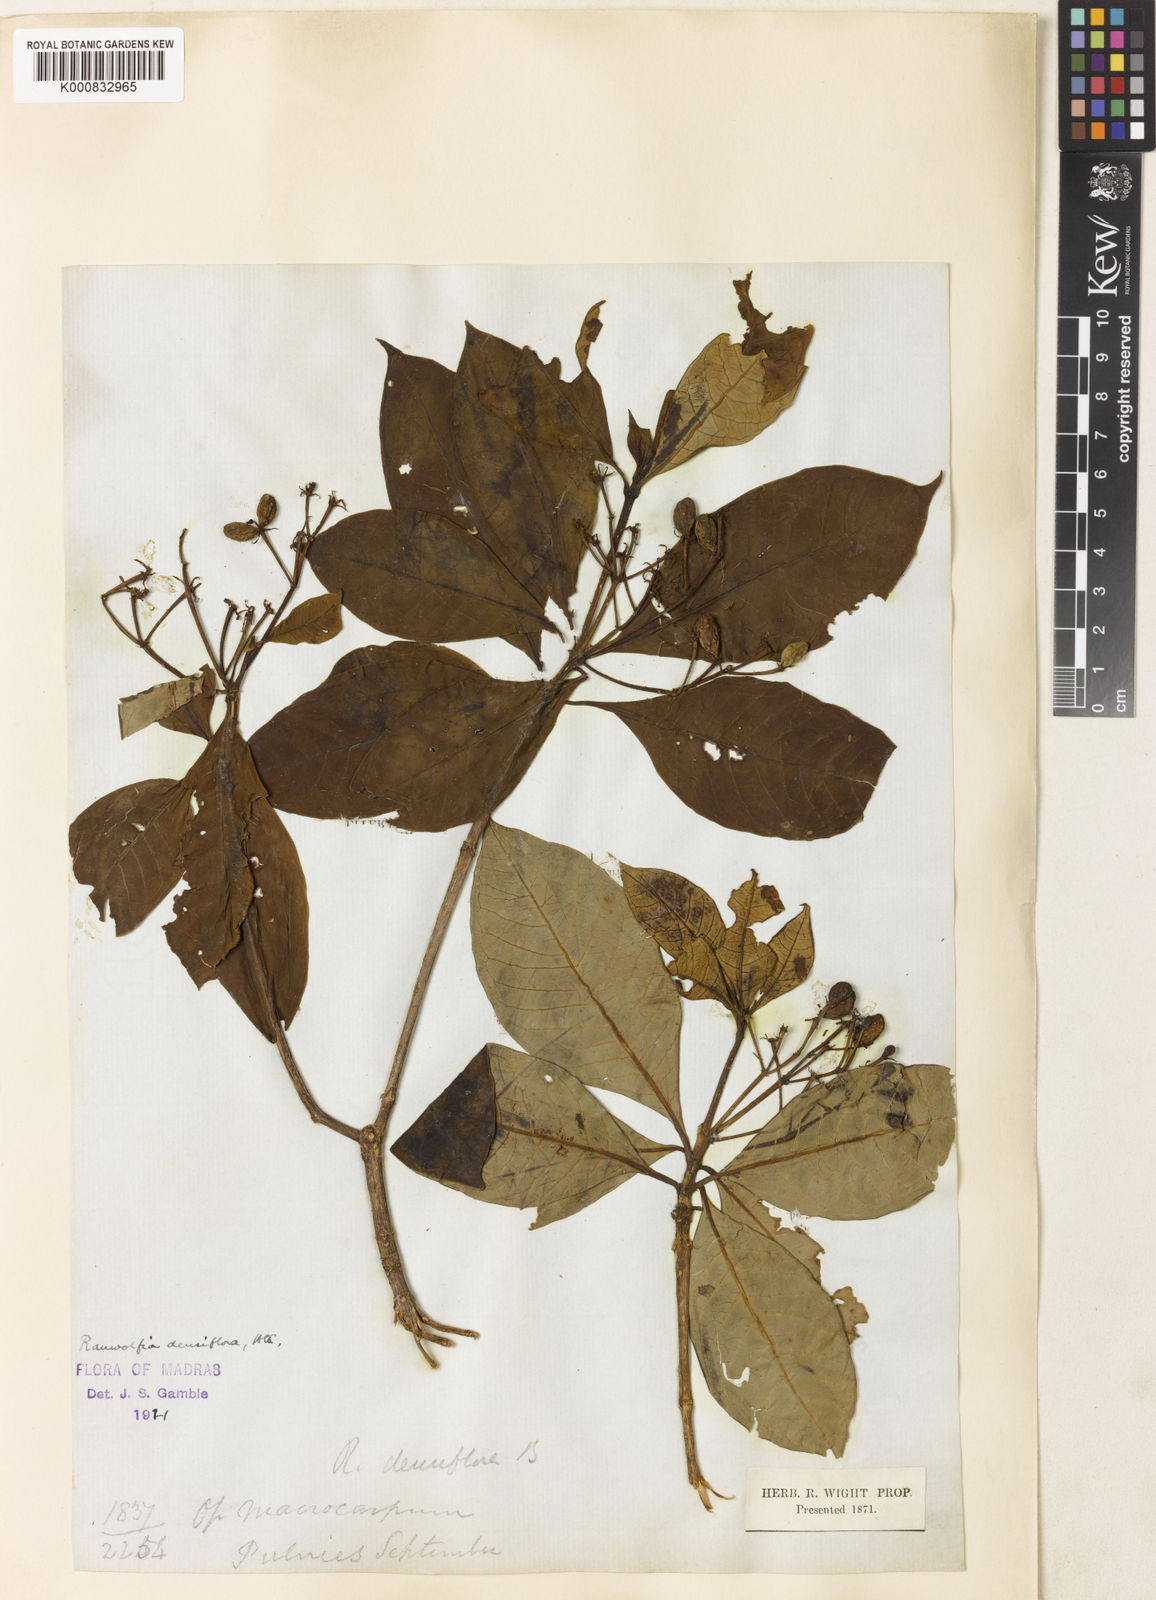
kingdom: Plantae
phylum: Tracheophyta
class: Magnoliopsida
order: Gentianales
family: Apocynaceae
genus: Rauvolfia
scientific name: Rauvolfia verticillata
